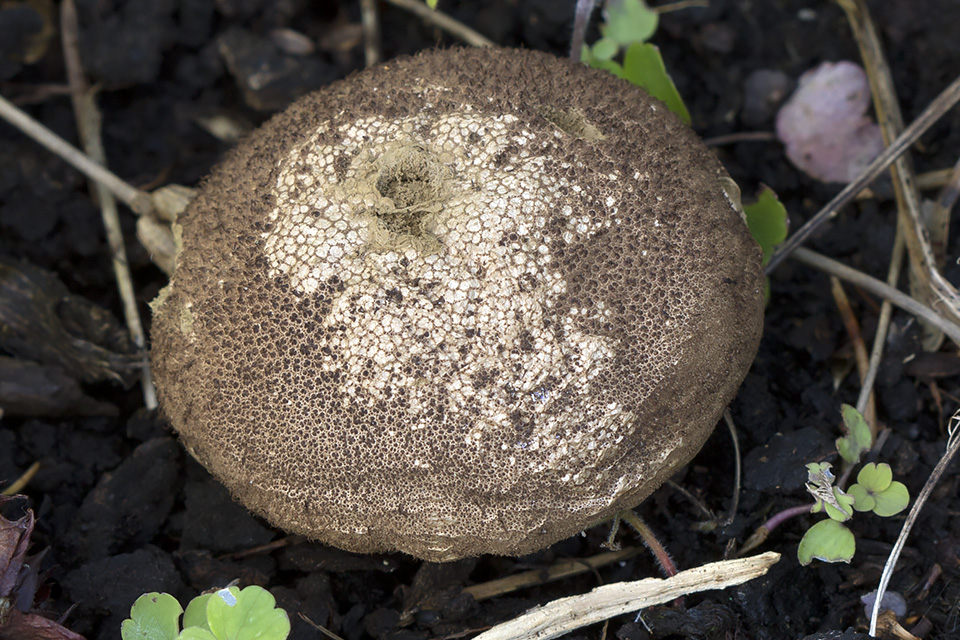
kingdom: Fungi
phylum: Basidiomycota
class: Agaricomycetes
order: Agaricales
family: Lycoperdaceae
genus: Lycoperdon
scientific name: Lycoperdon nigrescens
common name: sortagtig støvbold
